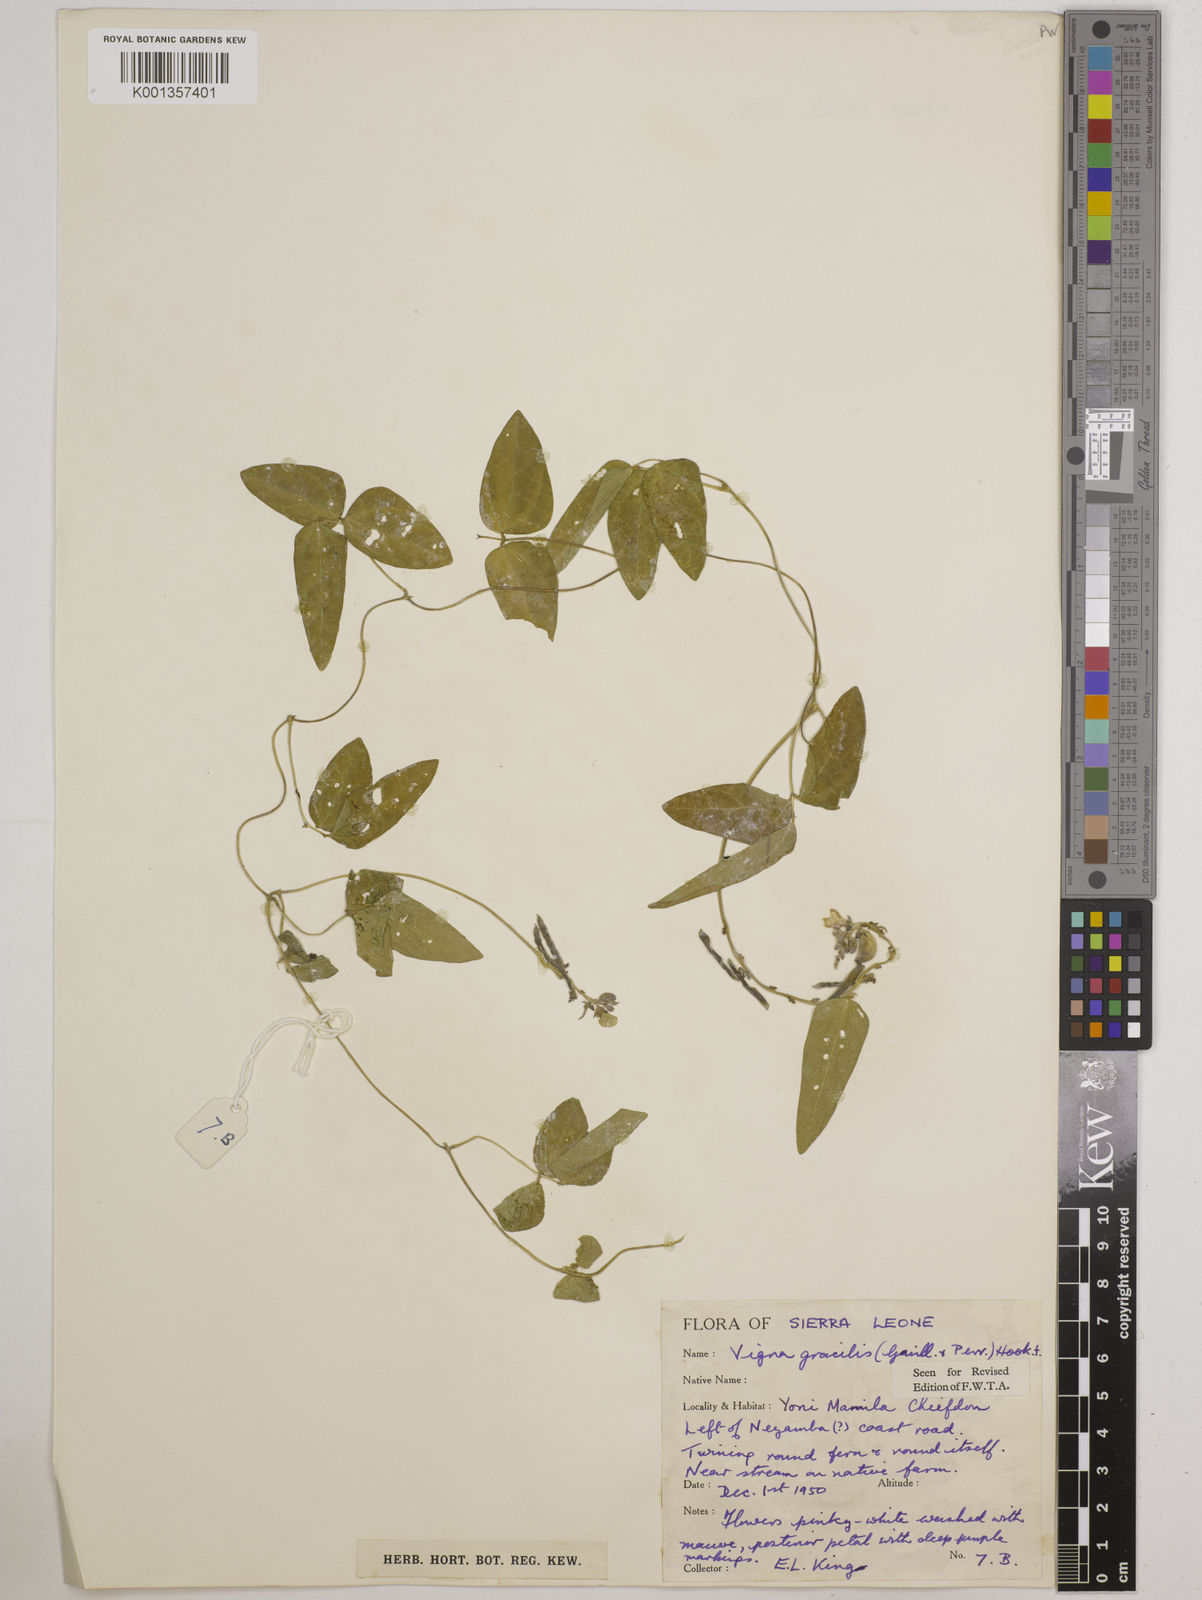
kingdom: Plantae
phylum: Tracheophyta
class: Magnoliopsida
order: Fabales
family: Fabaceae
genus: Vigna
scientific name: Vigna gracilis
